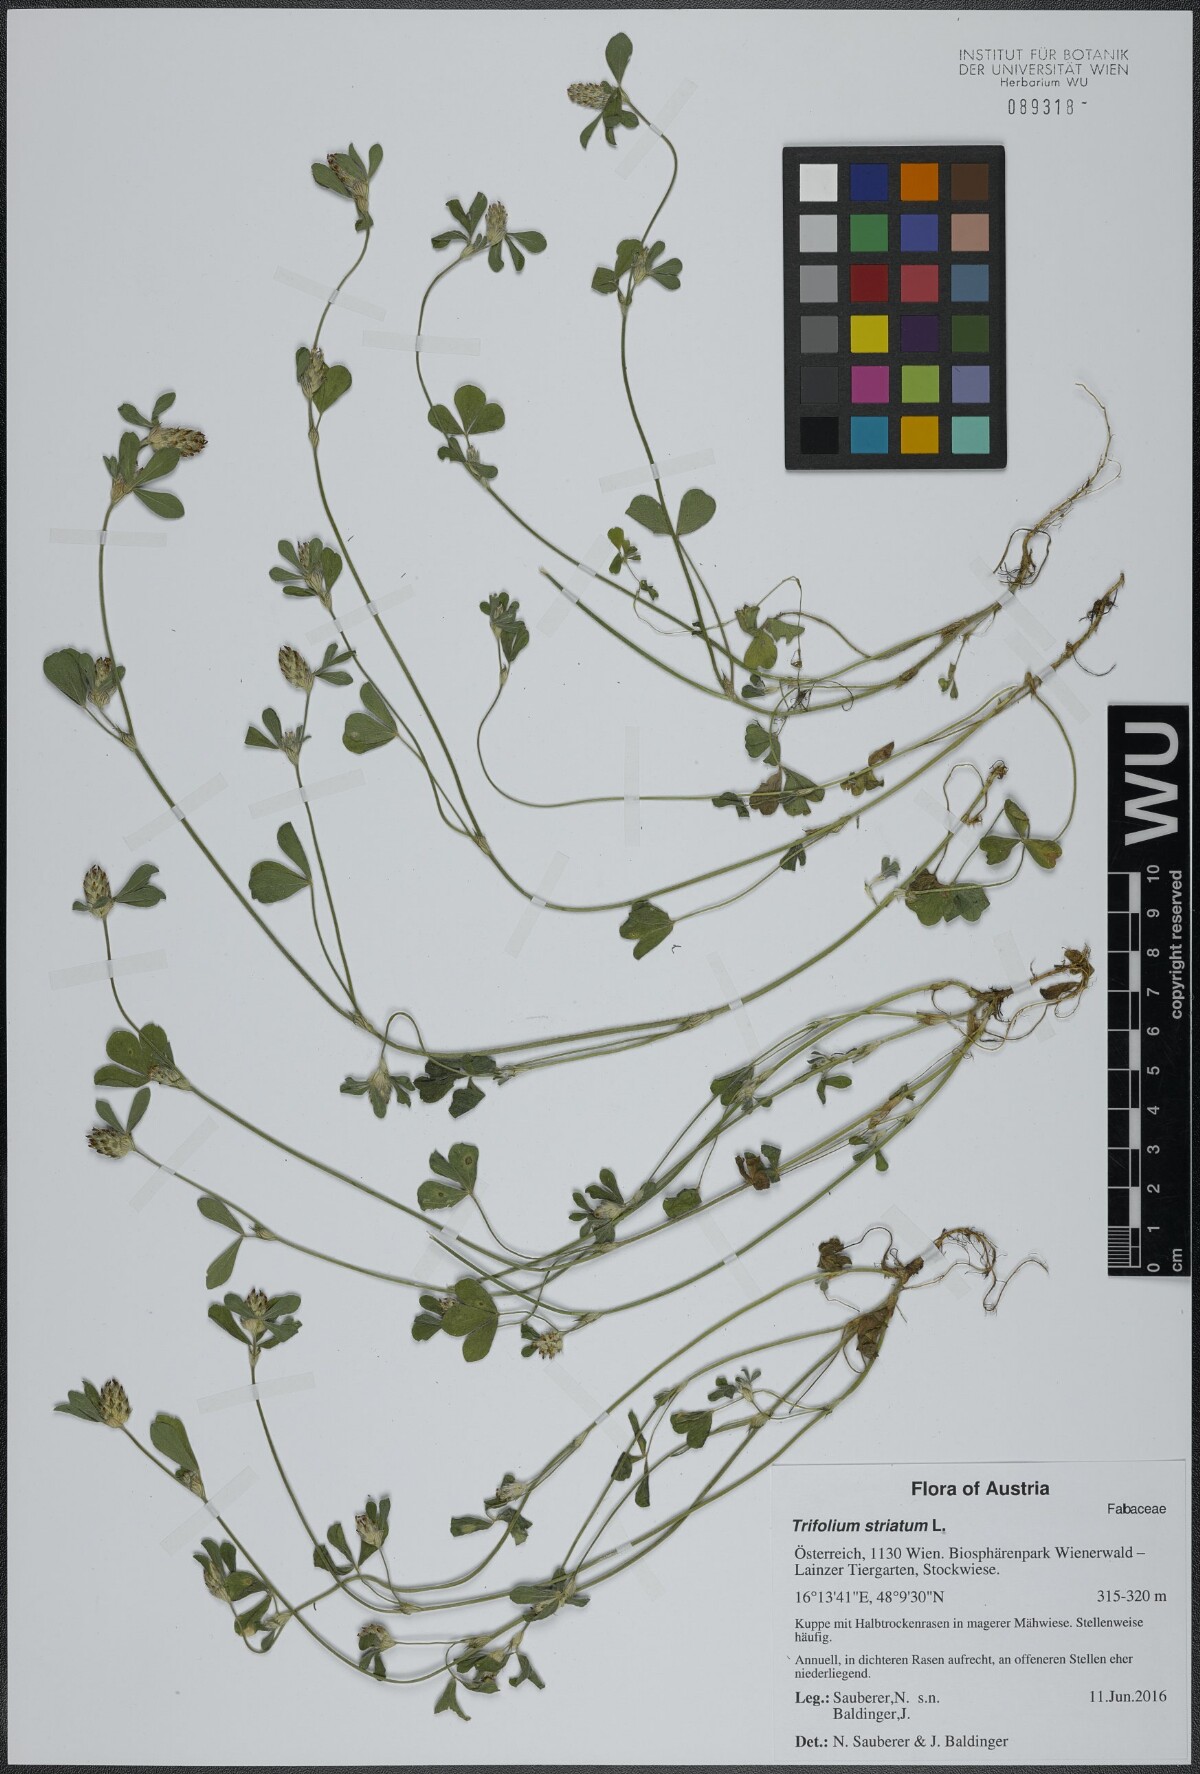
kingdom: Plantae
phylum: Tracheophyta
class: Magnoliopsida
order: Fabales
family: Fabaceae
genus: Trifolium
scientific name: Trifolium striatum
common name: Knotted clover
